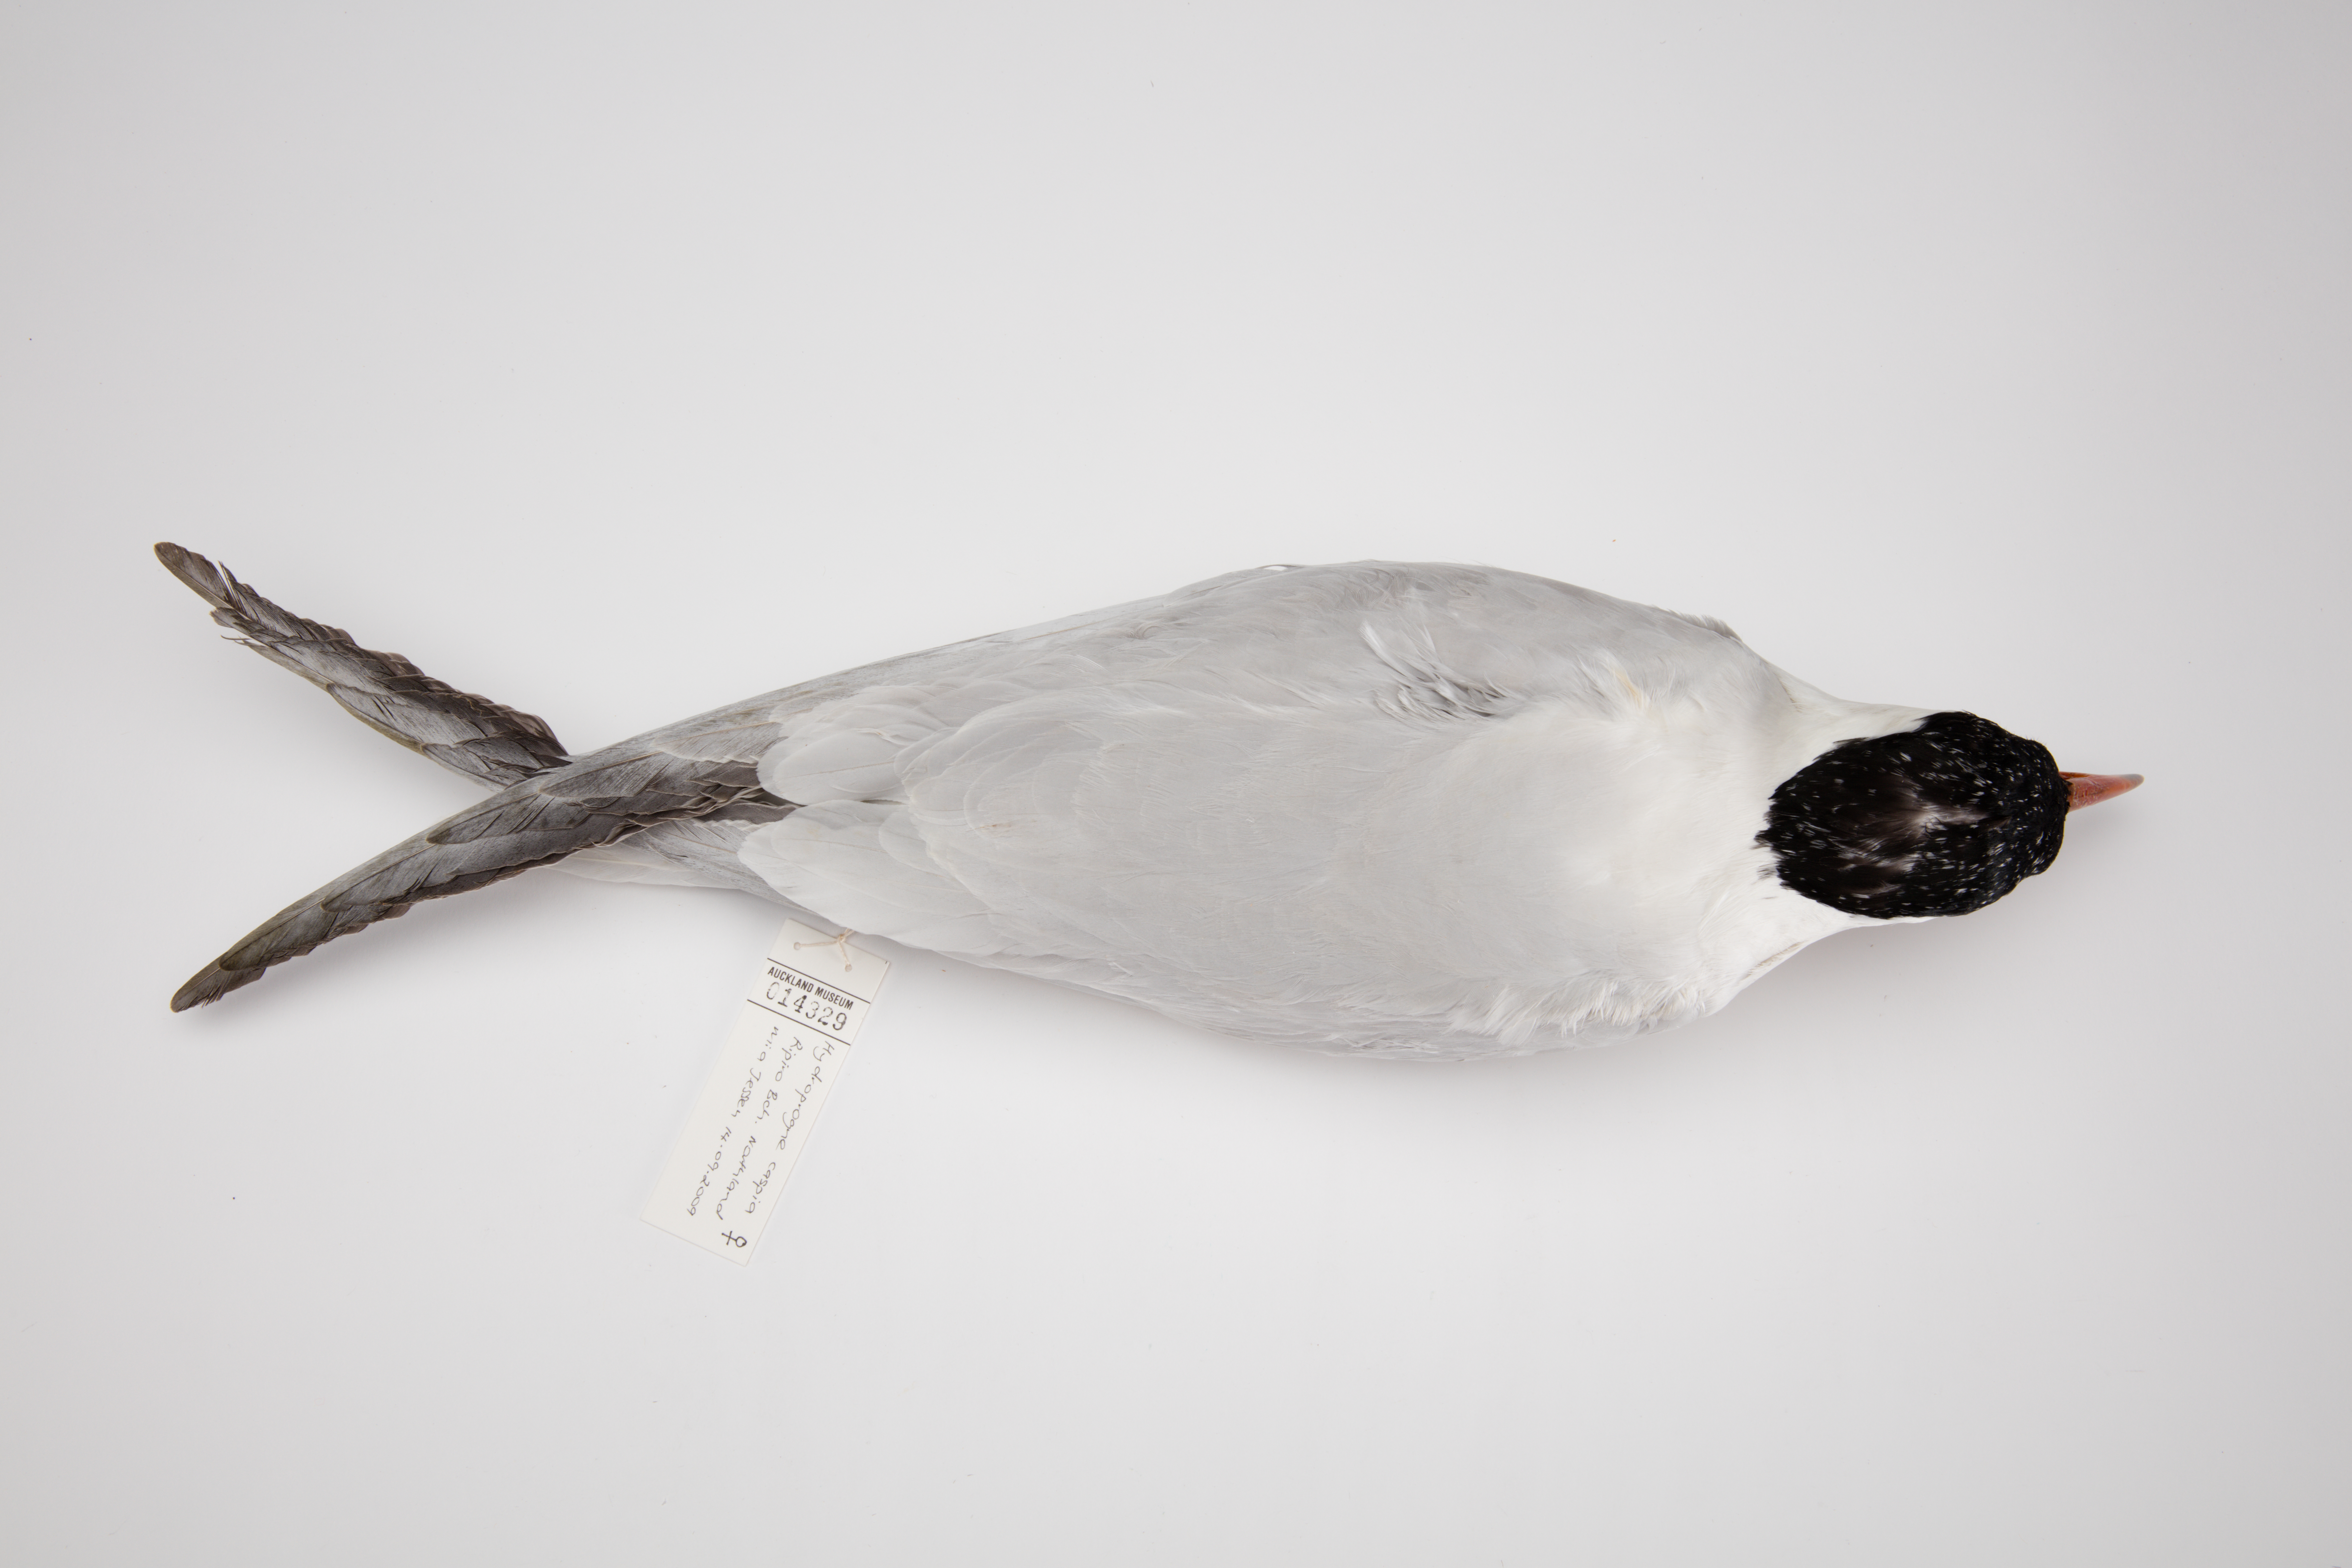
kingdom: Animalia
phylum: Chordata
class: Aves
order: Charadriiformes
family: Laridae
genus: Hydroprogne
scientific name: Hydroprogne caspia
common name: Caspian tern
